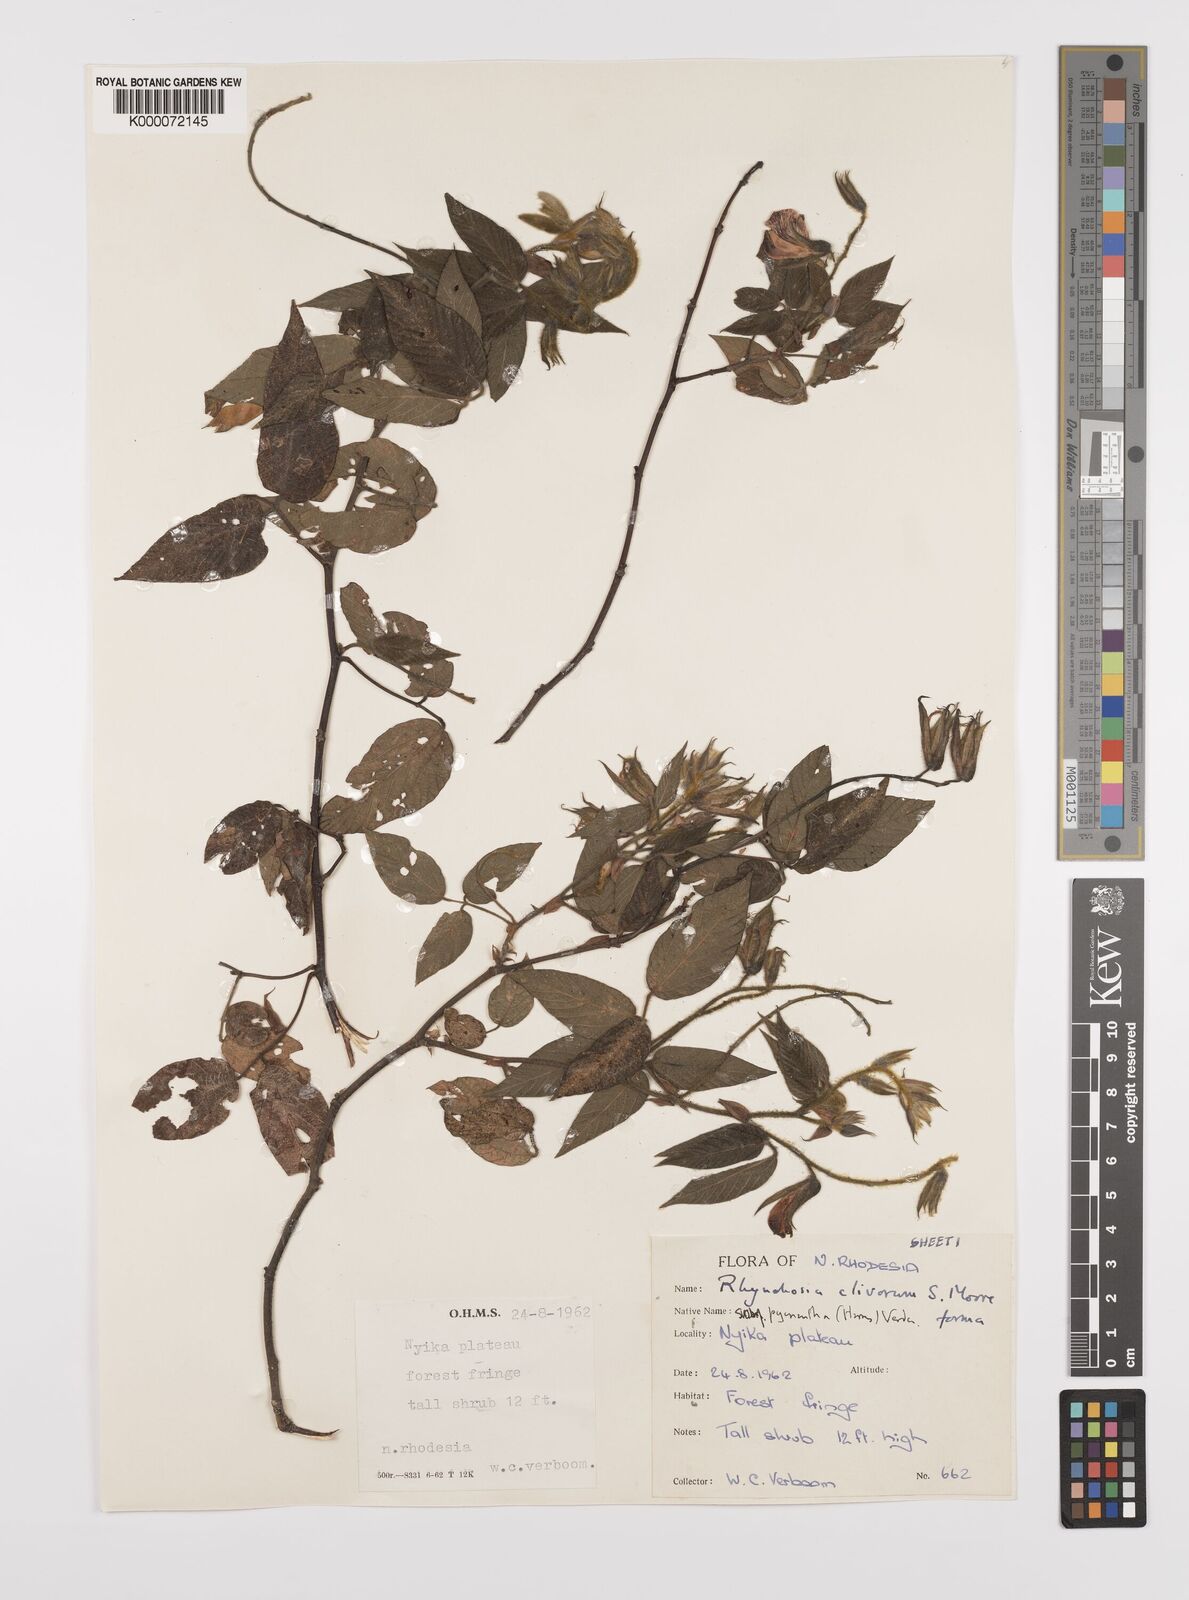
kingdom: Plantae
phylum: Tracheophyta
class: Magnoliopsida
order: Fabales
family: Fabaceae
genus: Rhynchosia
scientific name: Rhynchosia clivorum
